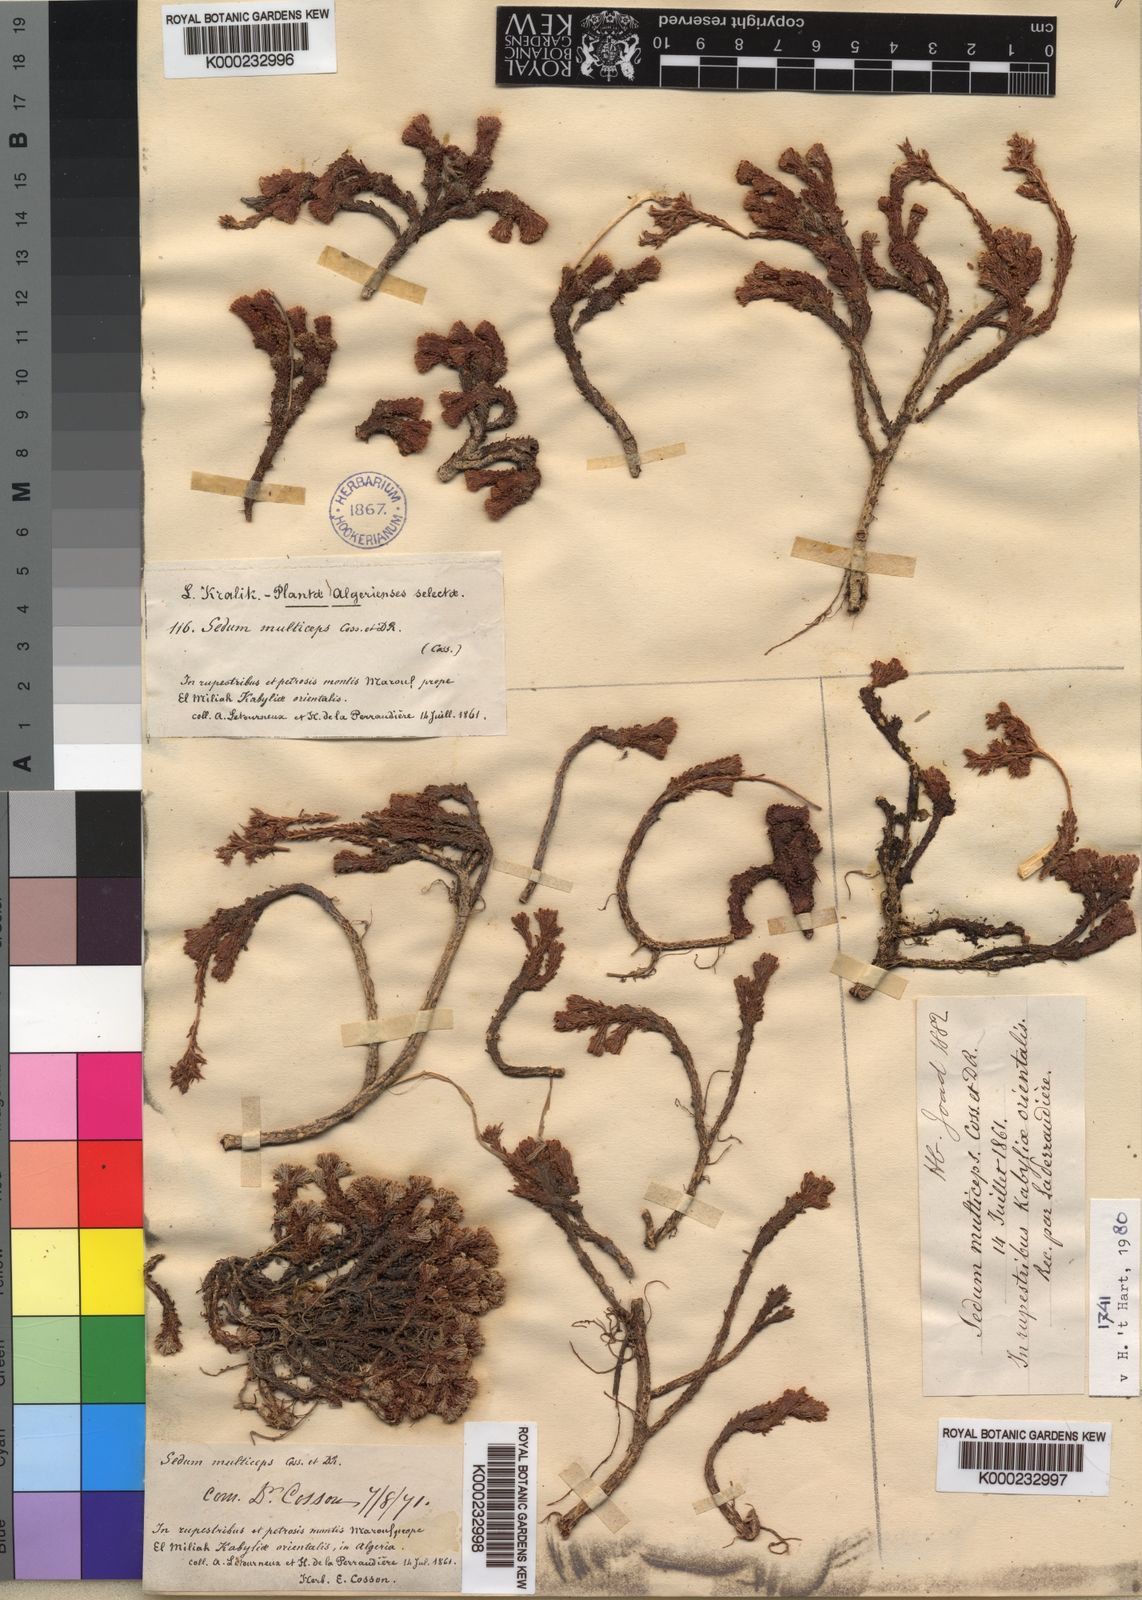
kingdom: Plantae
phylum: Tracheophyta
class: Magnoliopsida
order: Saxifragales
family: Crassulaceae
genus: Sedum
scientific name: Sedum multiceps
